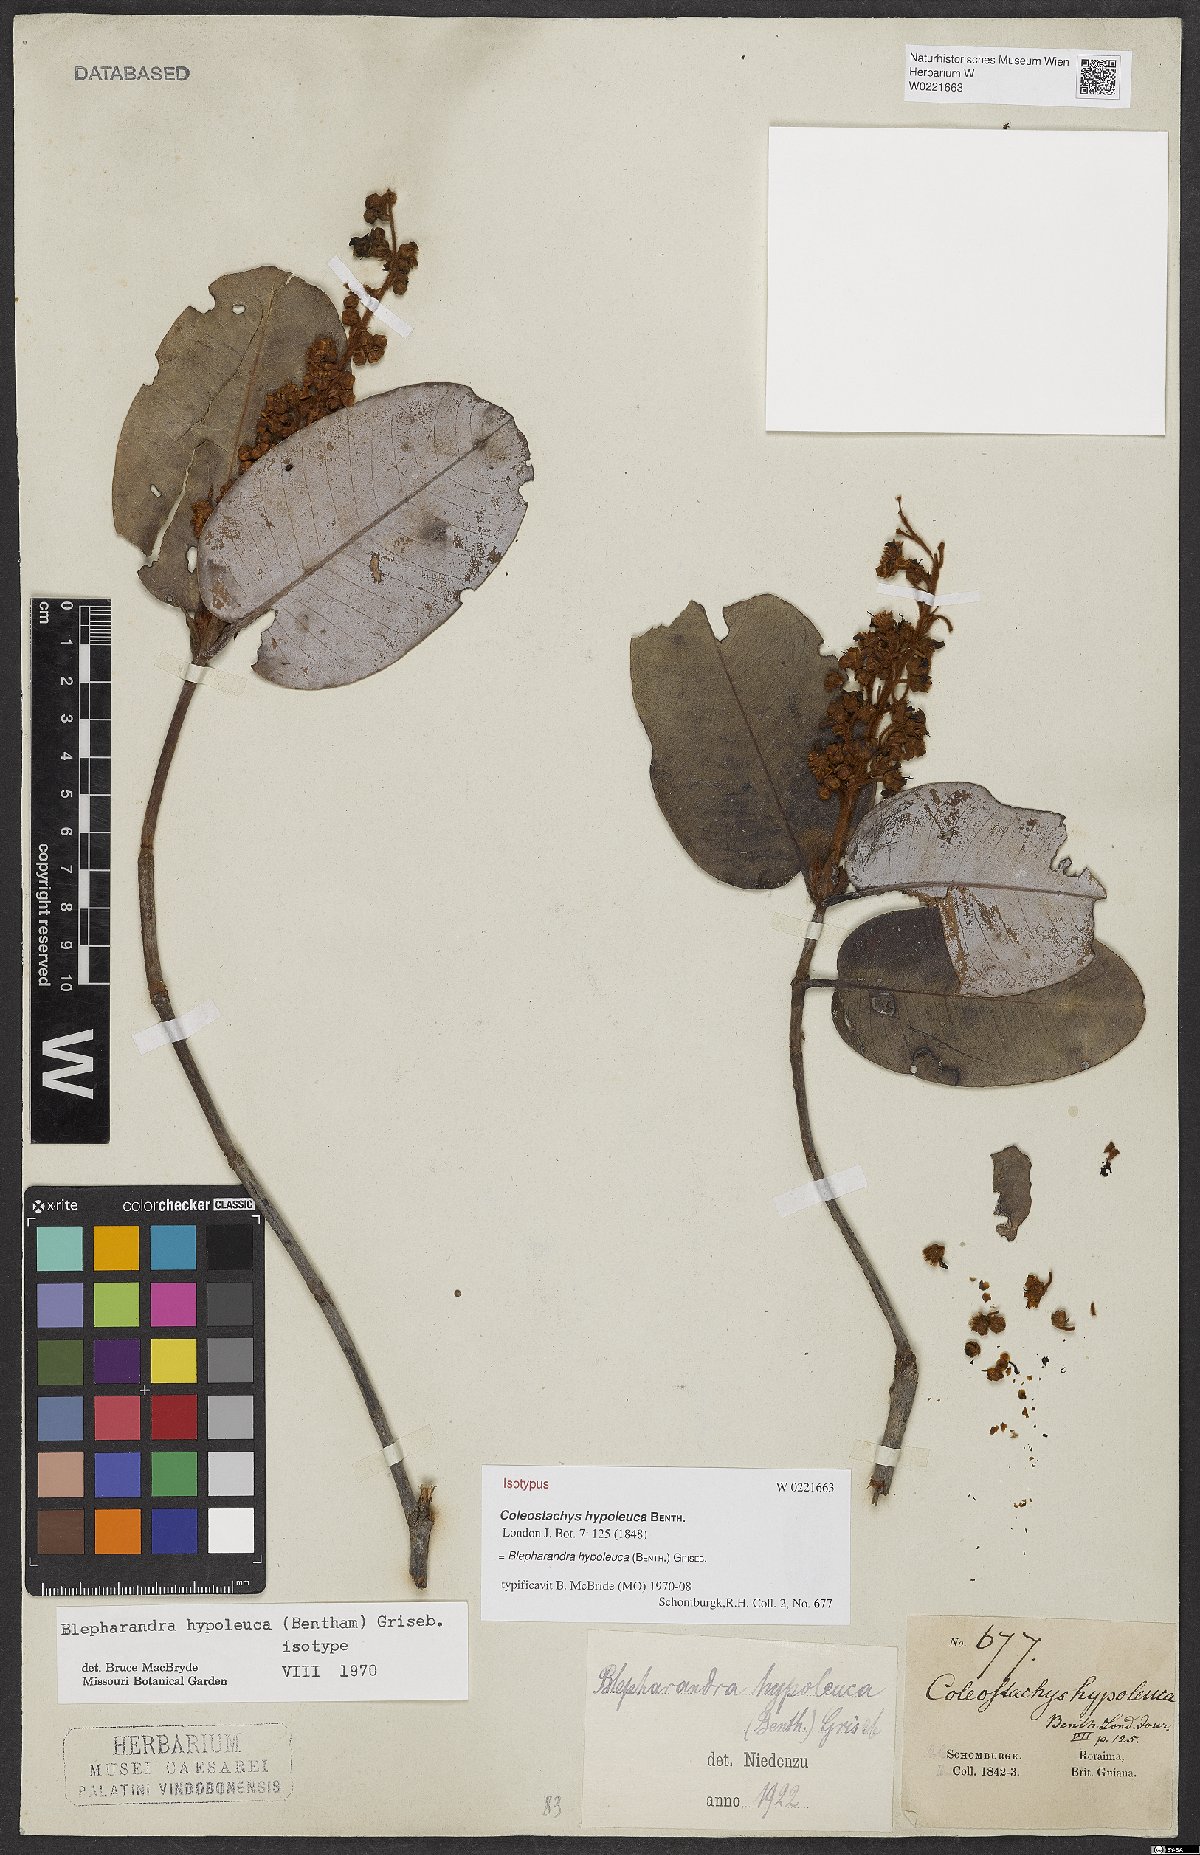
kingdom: Plantae
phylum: Tracheophyta
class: Magnoliopsida
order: Malpighiales
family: Malpighiaceae
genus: Blepharandra
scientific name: Blepharandra hypoleuca
